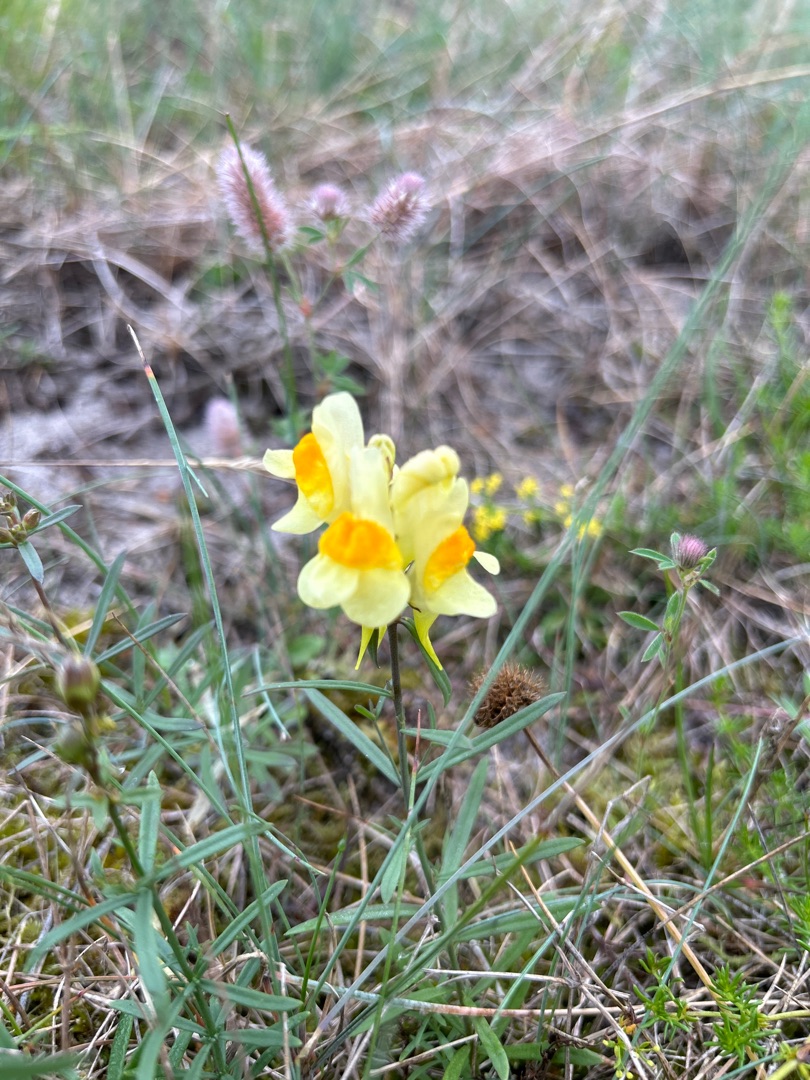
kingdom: Plantae
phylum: Tracheophyta
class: Magnoliopsida
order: Lamiales
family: Plantaginaceae
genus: Linaria
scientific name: Linaria vulgaris
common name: Almindelig torskemund
